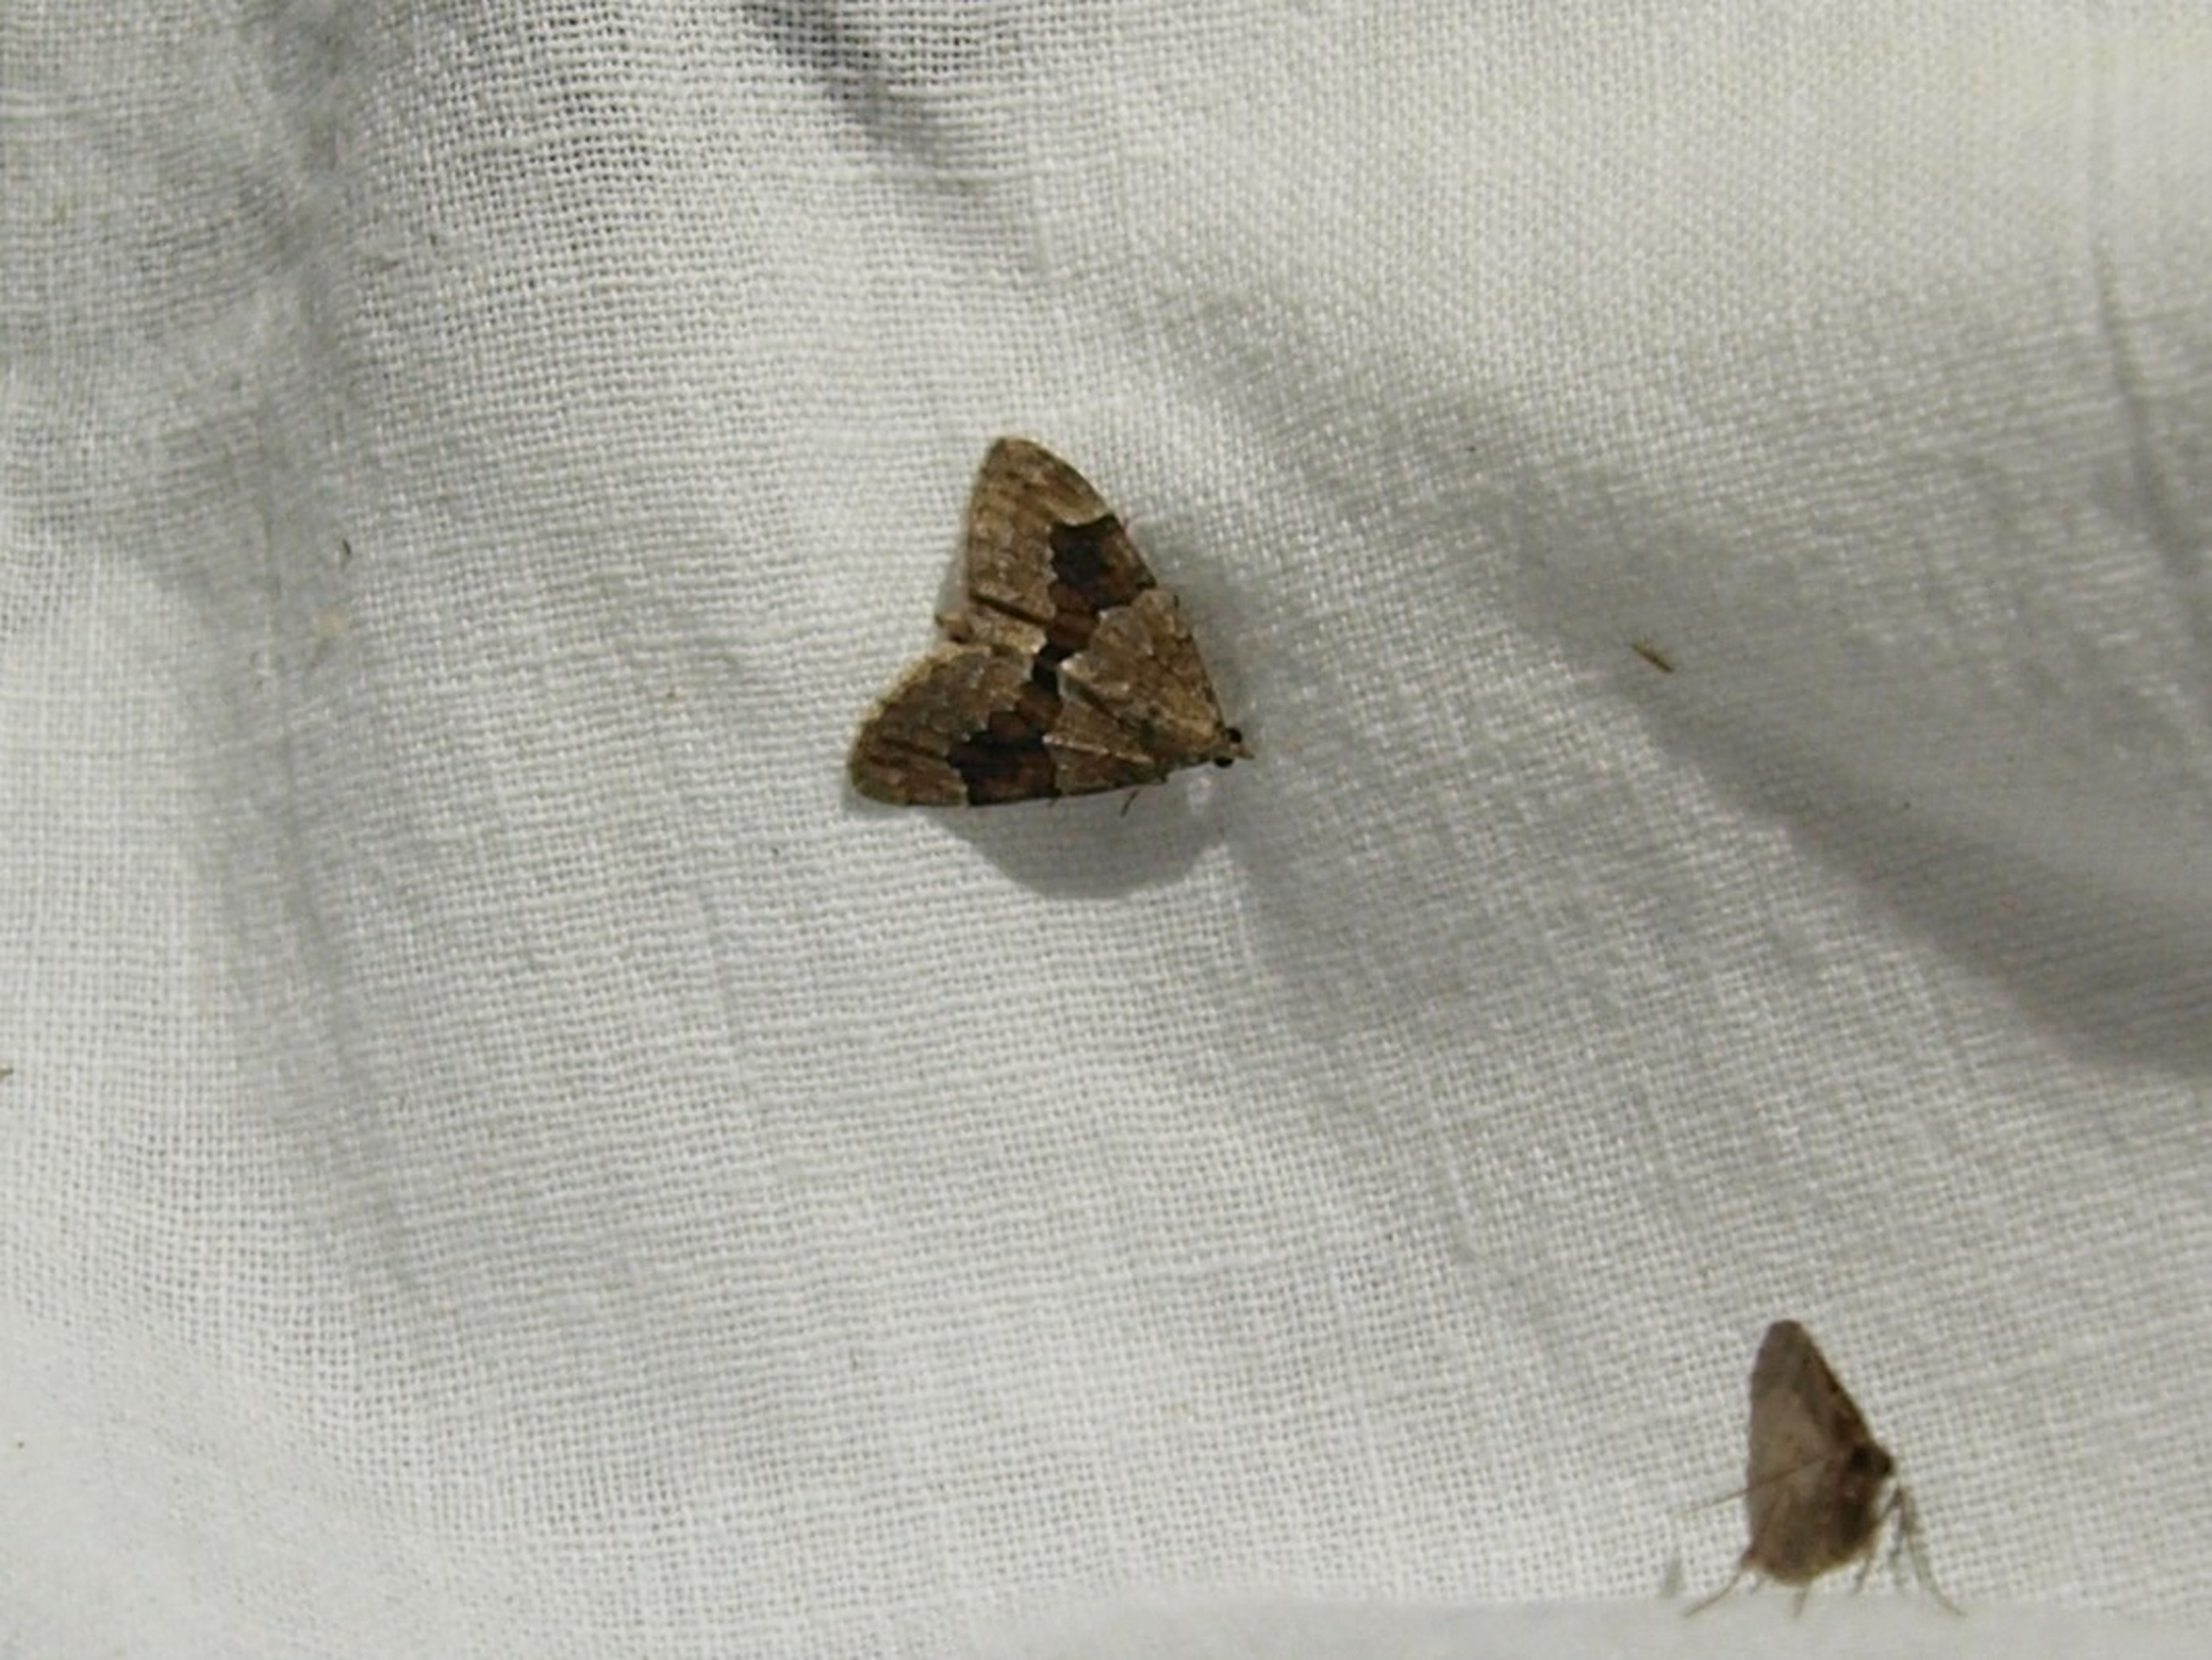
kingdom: Animalia
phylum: Arthropoda
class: Insecta
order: Lepidoptera
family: Geometridae
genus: Thera
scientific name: Thera obeliscata
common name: Grå fyrremåler
